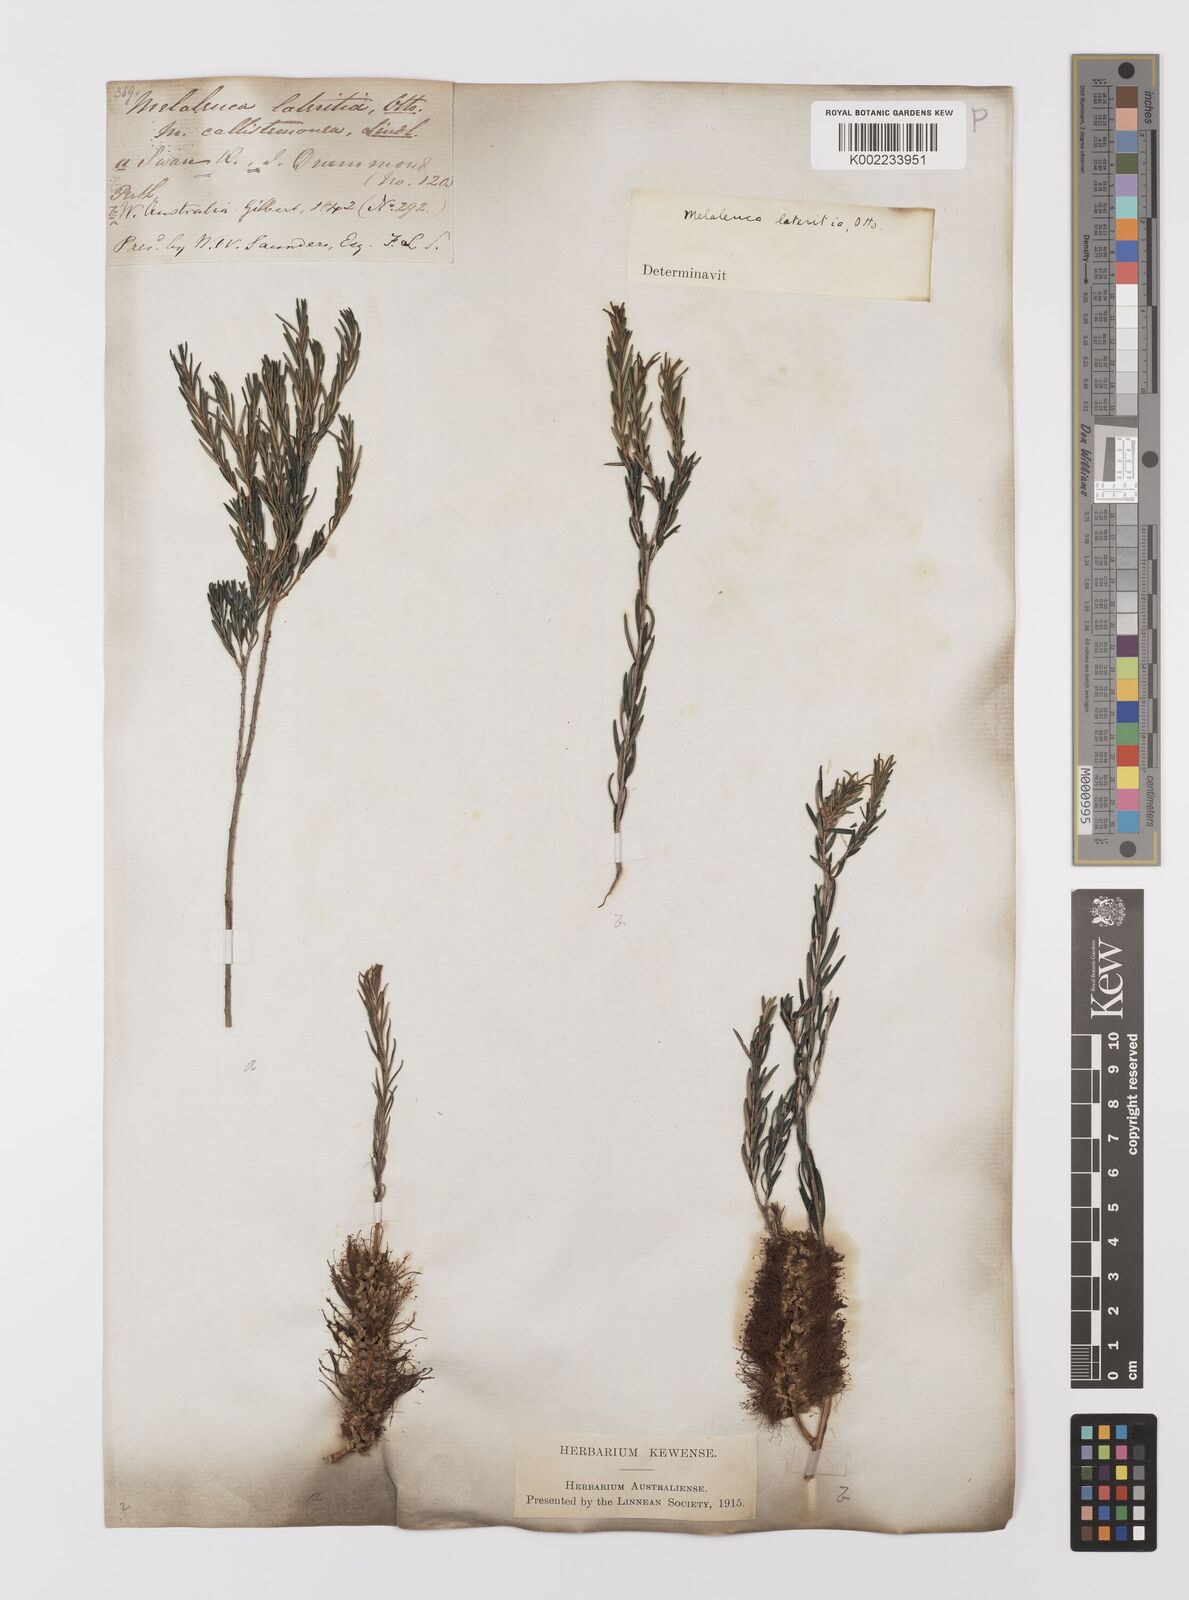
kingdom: Plantae
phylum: Tracheophyta
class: Magnoliopsida
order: Myrtales
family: Myrtaceae
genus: Melaleuca
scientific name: Melaleuca lateritia
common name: Robin red-breast
